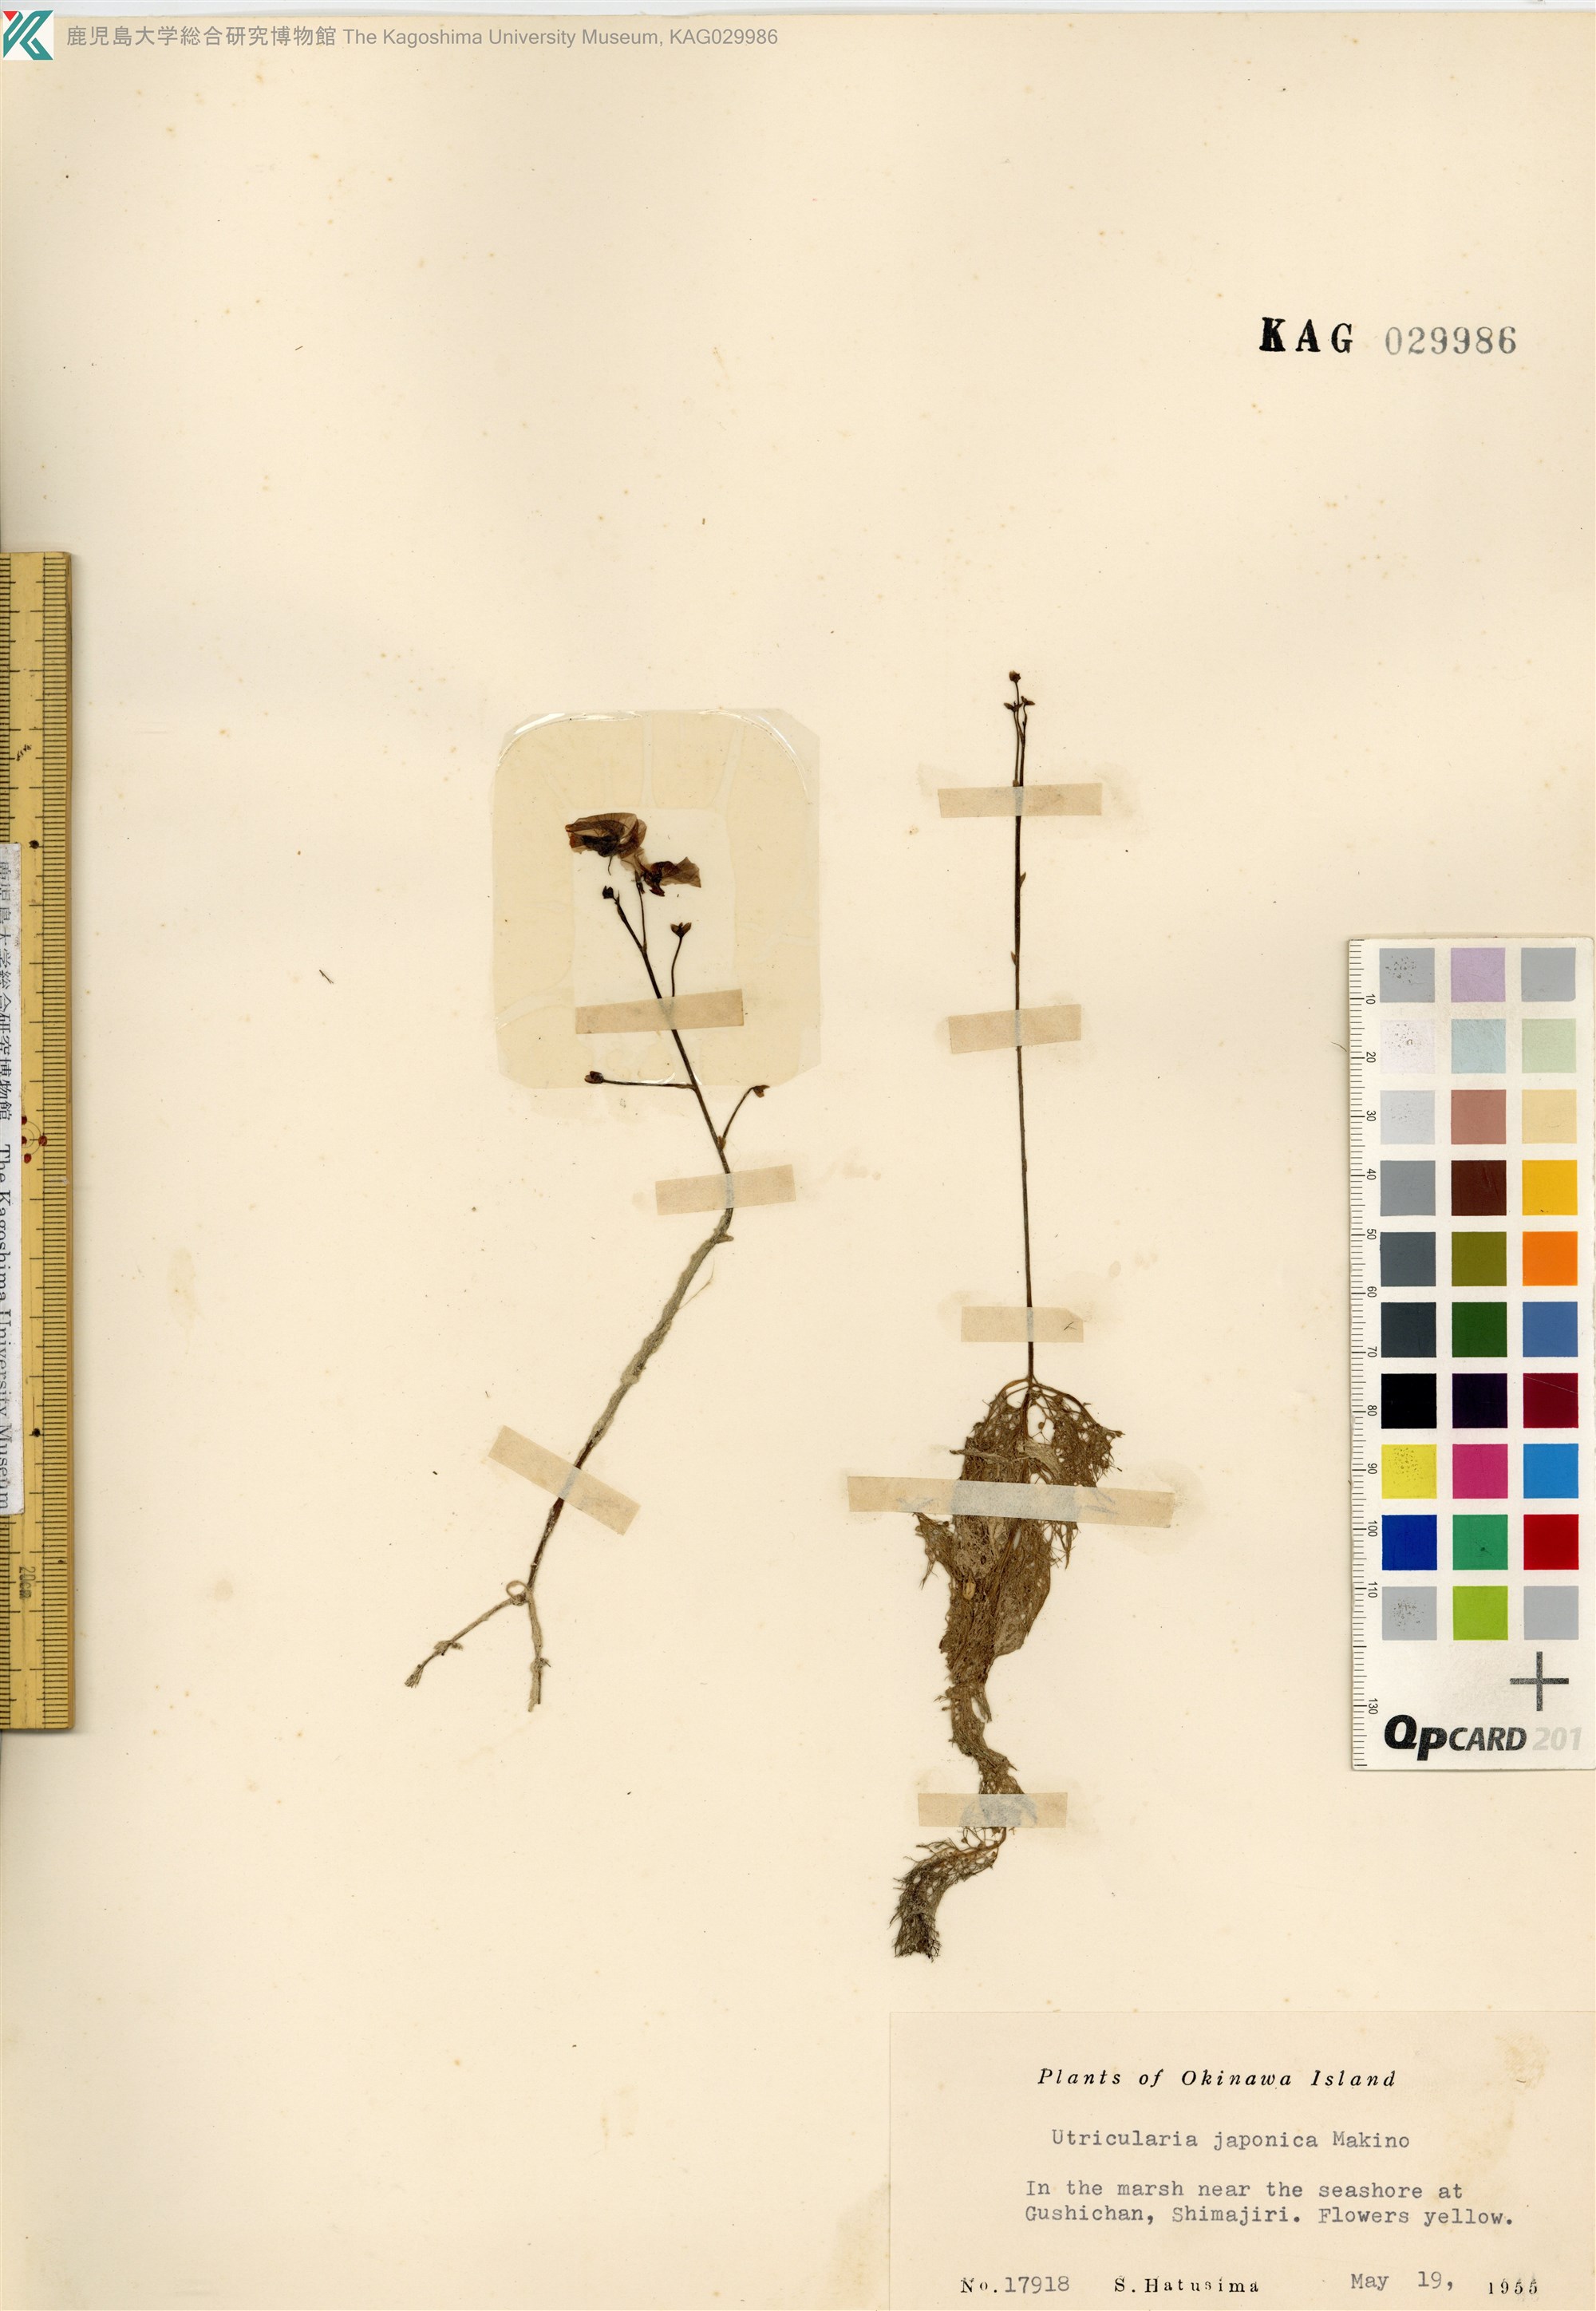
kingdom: Plantae
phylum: Tracheophyta
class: Magnoliopsida
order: Lamiales
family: Lentibulariaceae
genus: Utricularia
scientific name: Utricularia japonica
